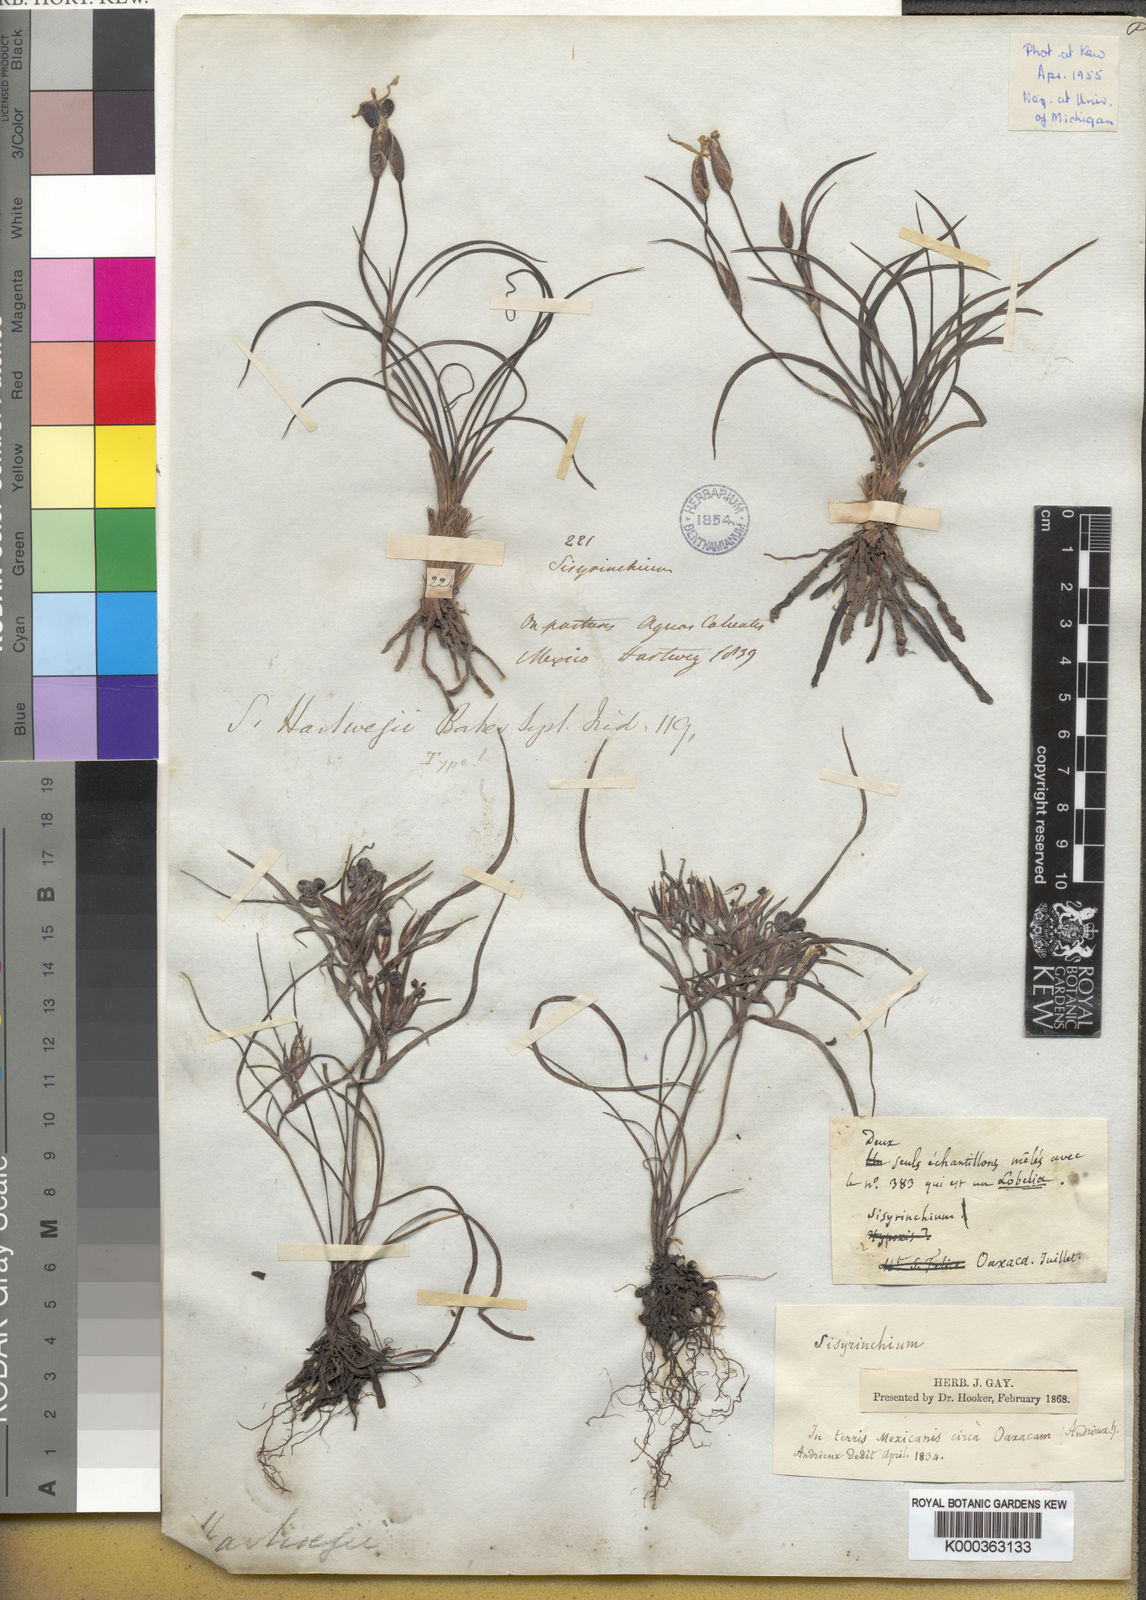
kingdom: Plantae
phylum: Tracheophyta
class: Liliopsida
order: Asparagales
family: Iridaceae
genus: Sisyrinchium
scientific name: Sisyrinchium tenuifolium
